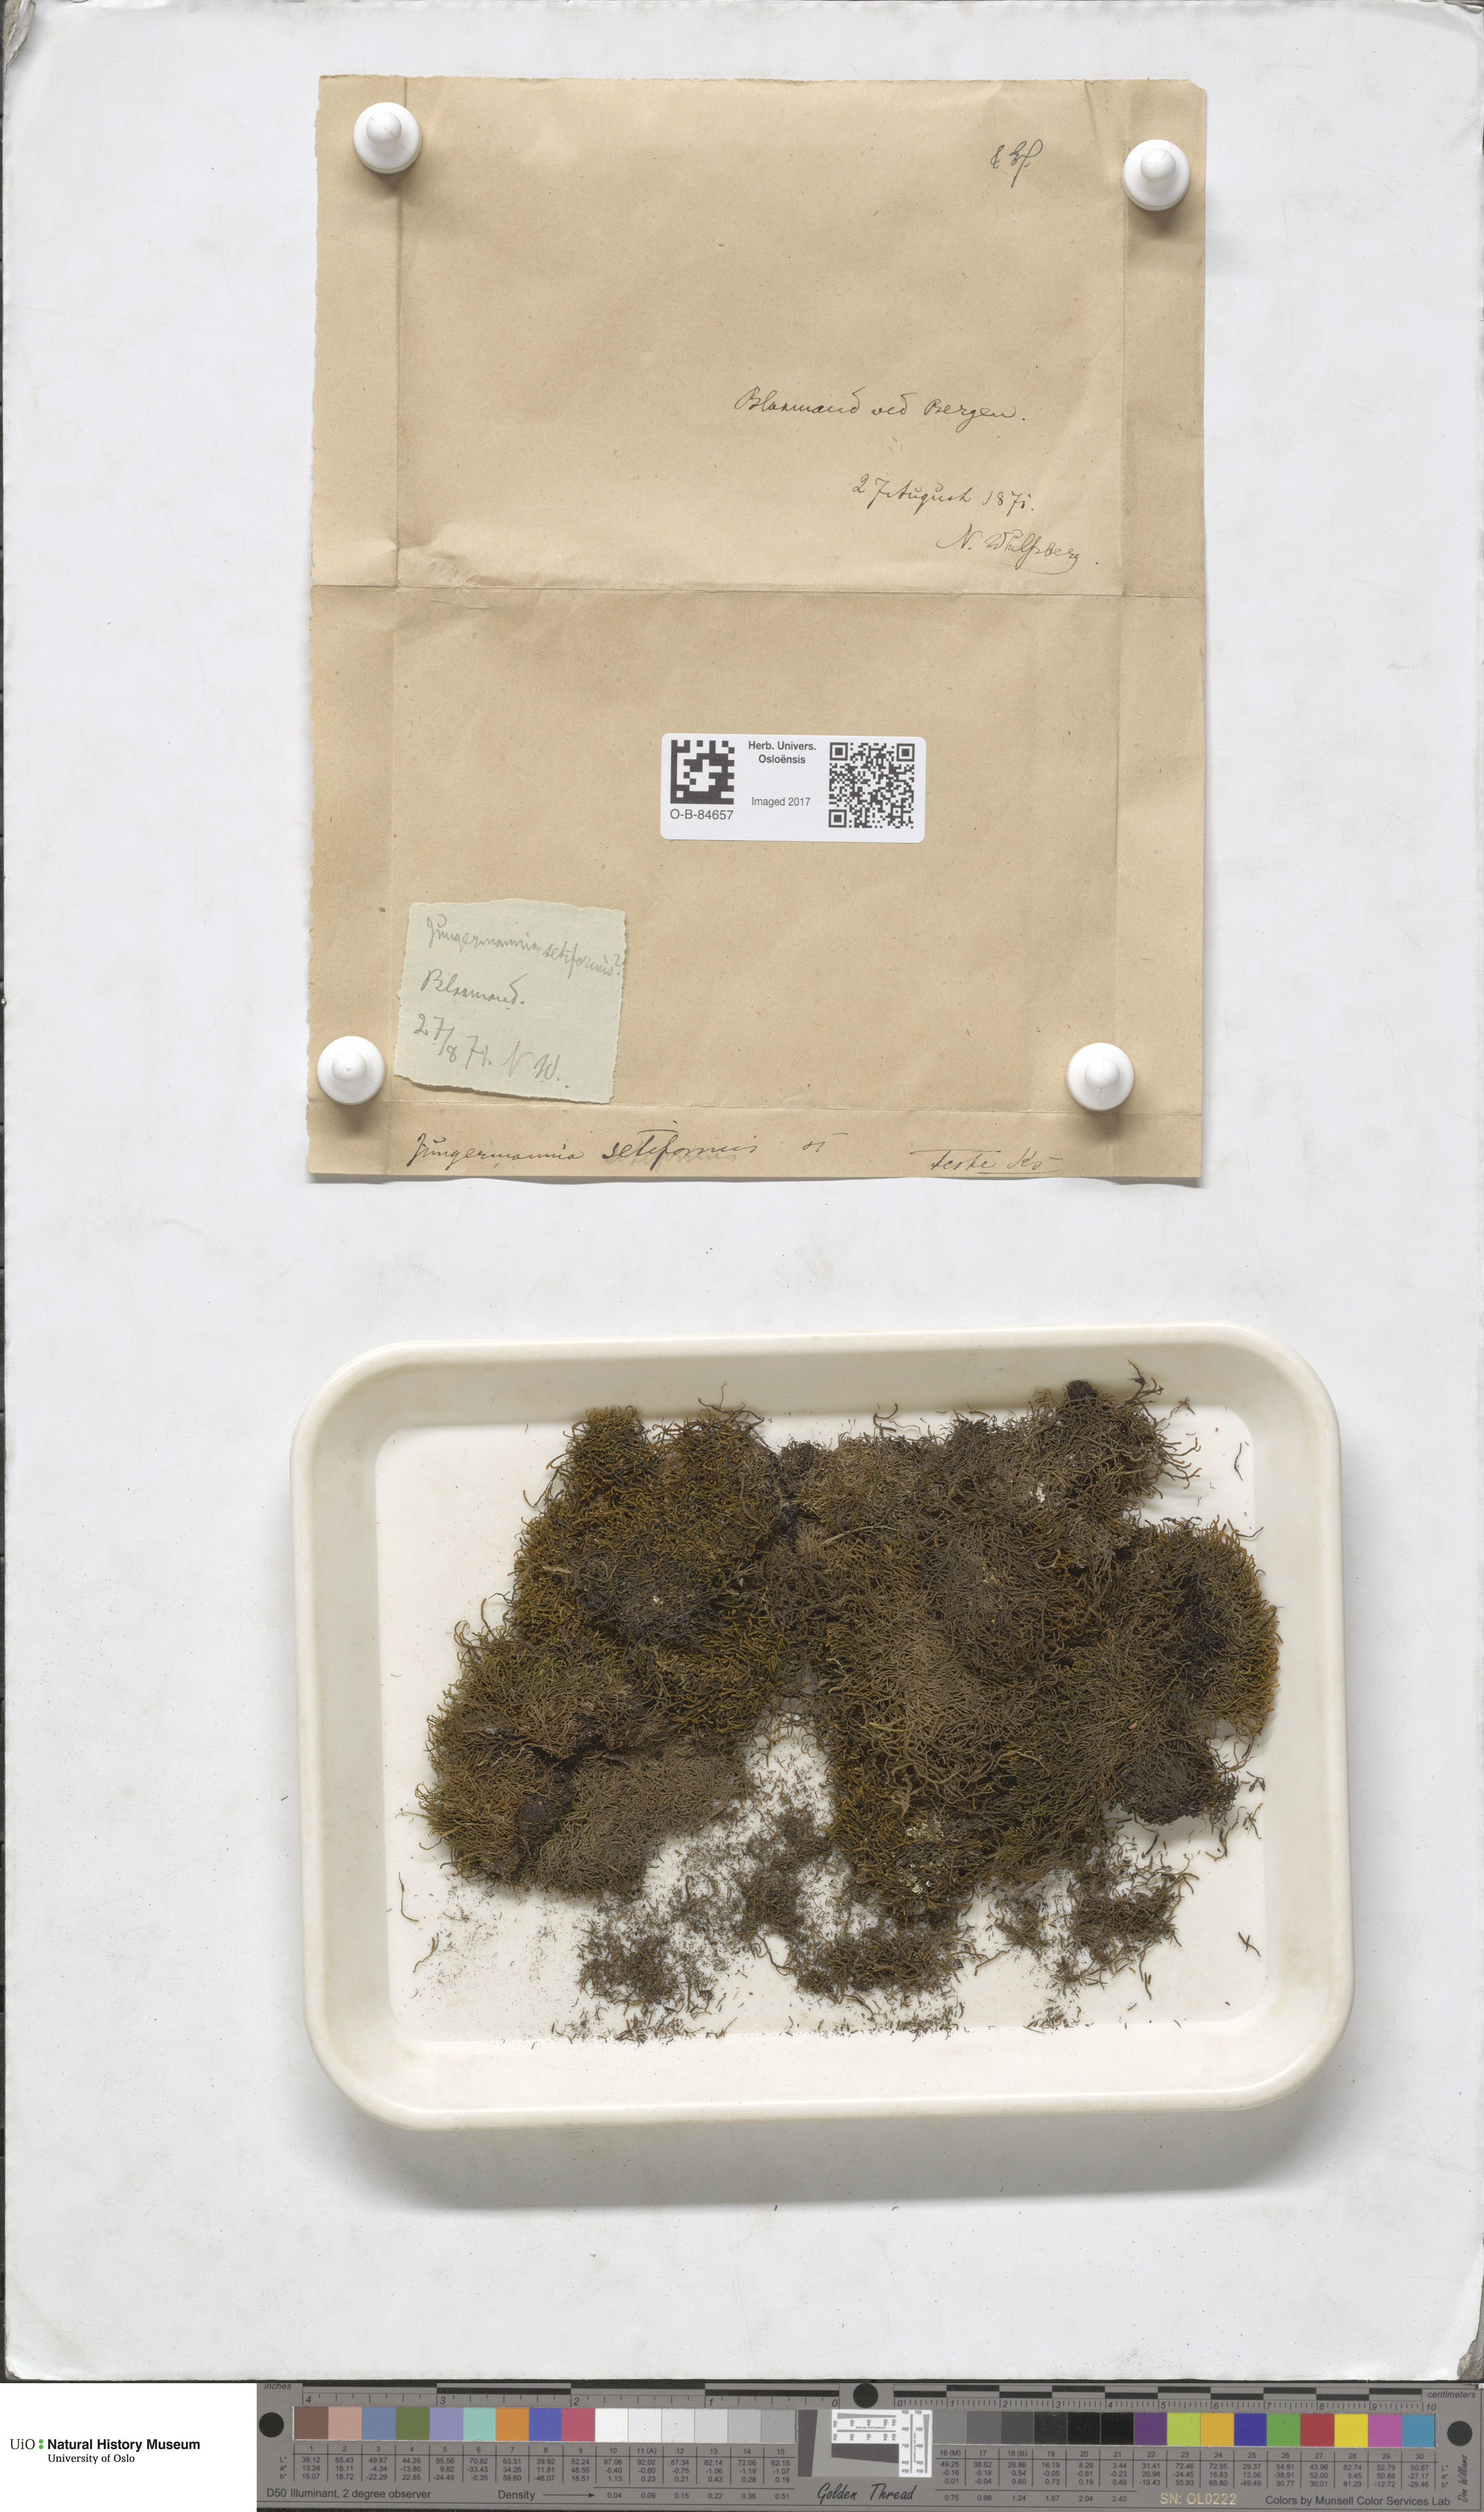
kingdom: Plantae
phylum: Marchantiophyta
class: Jungermanniopsida
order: Jungermanniales
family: Anastrophyllaceae
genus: Tetralophozia
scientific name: Tetralophozia setiformis
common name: Monster pawwort
